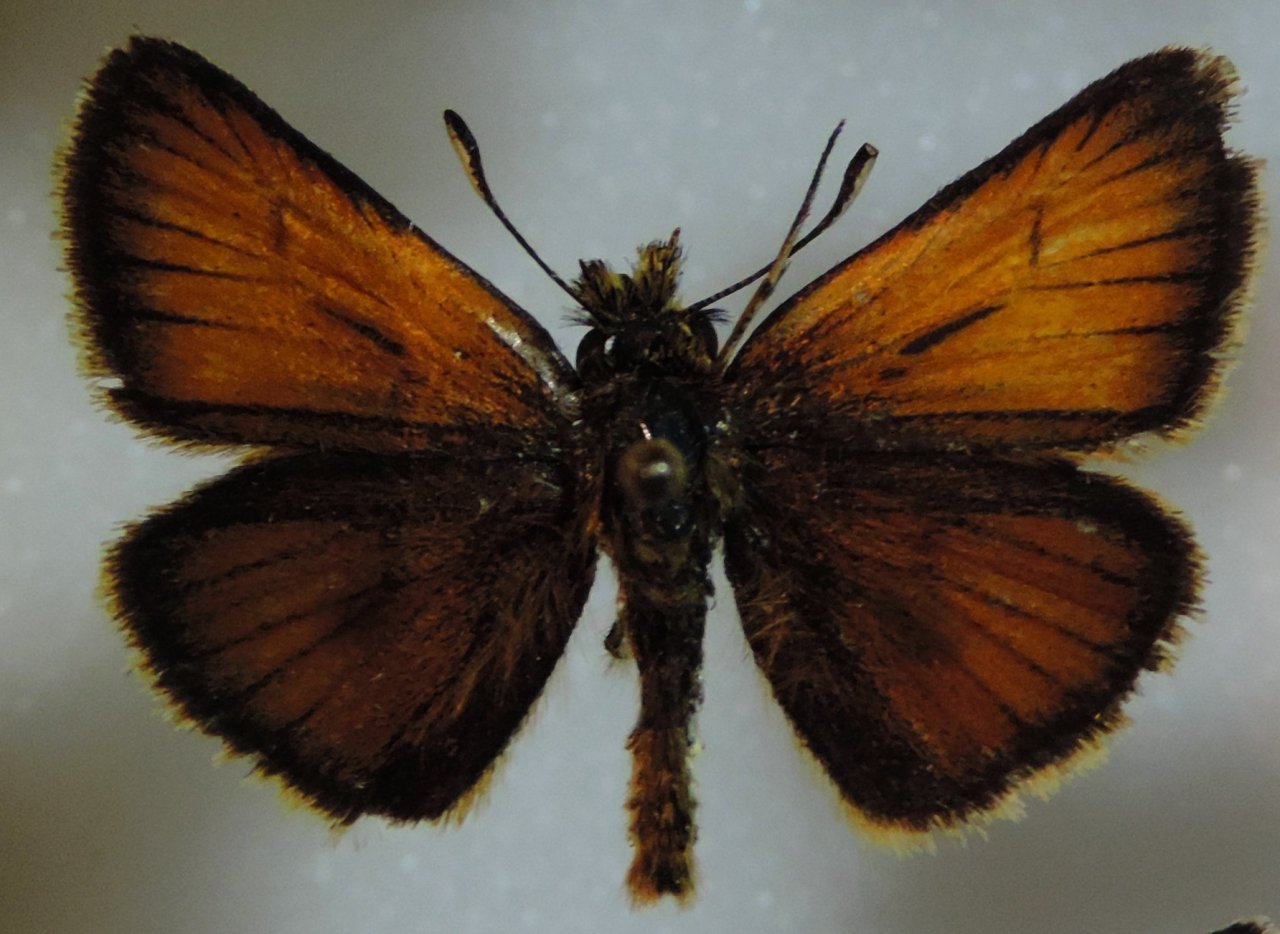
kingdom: Animalia
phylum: Arthropoda
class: Insecta
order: Lepidoptera
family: Hesperiidae
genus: Thymelicus
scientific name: Thymelicus lineola
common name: European Skipper
